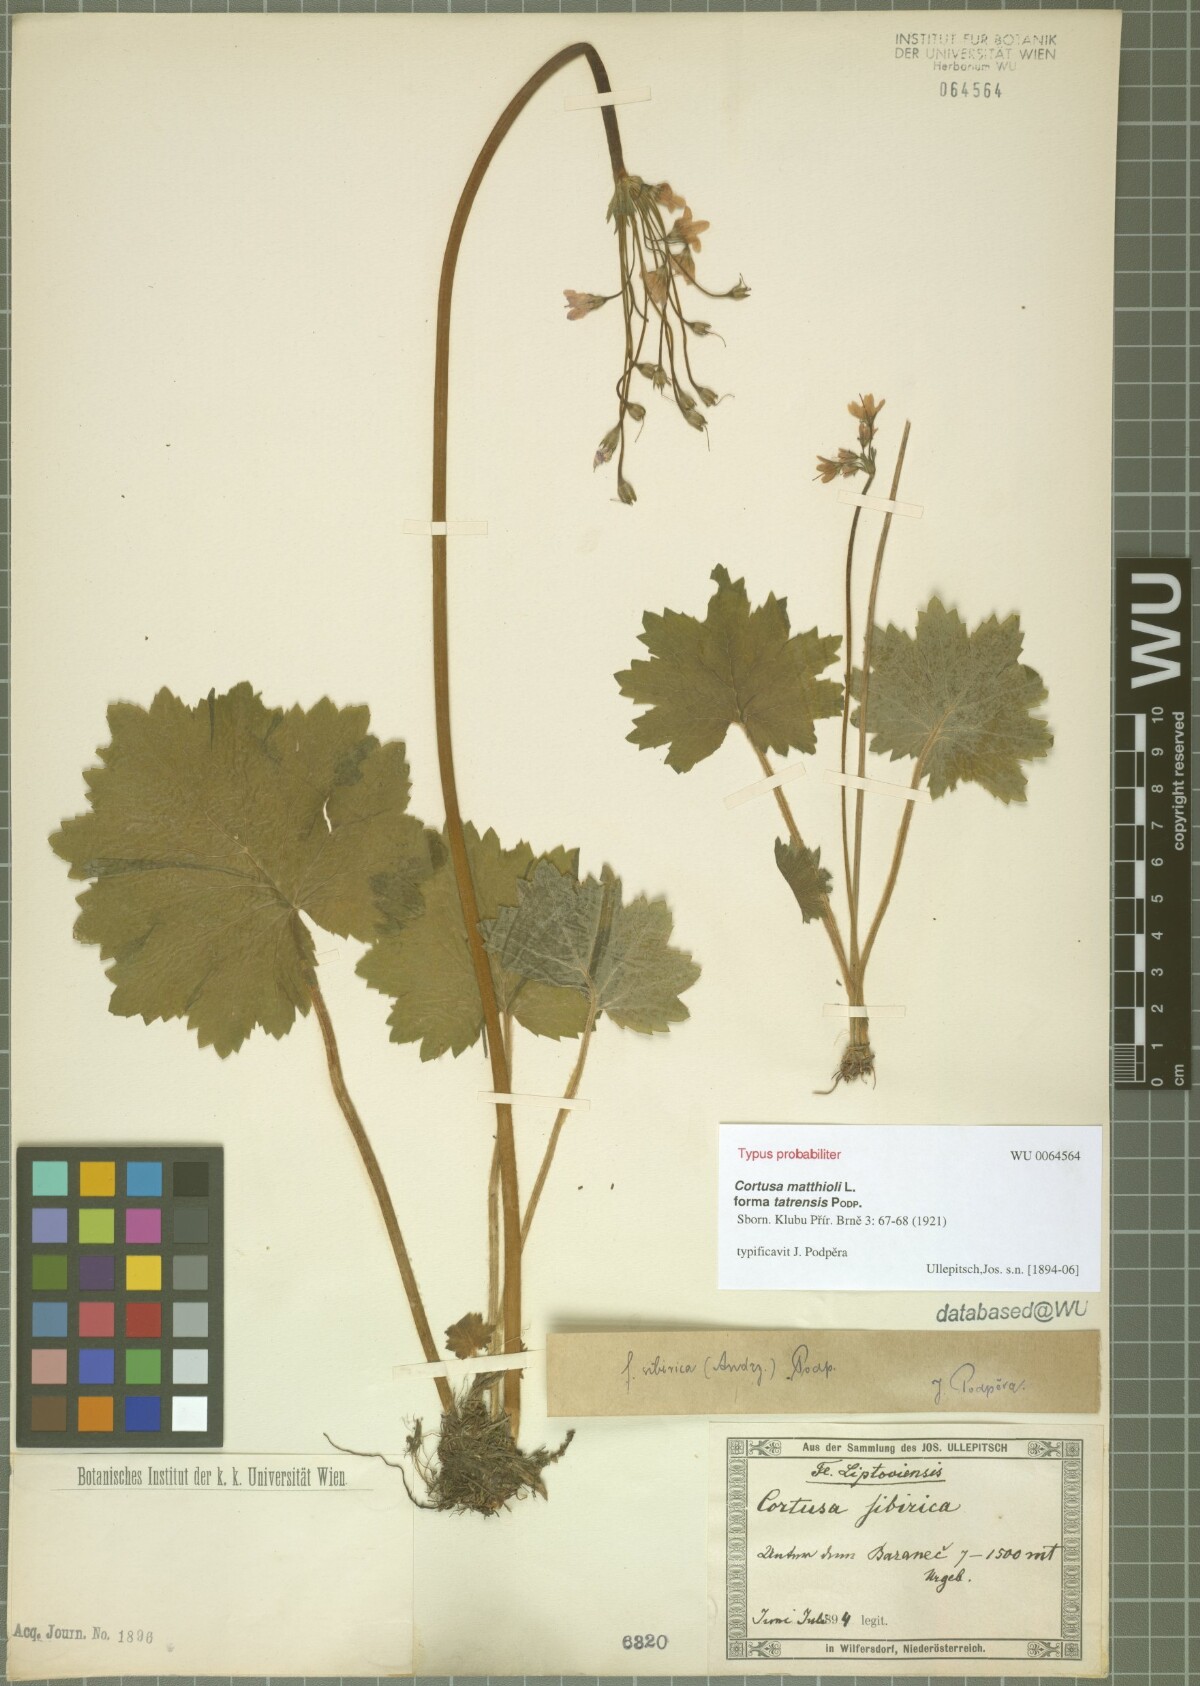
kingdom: Plantae
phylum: Tracheophyta
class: Magnoliopsida
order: Ericales
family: Primulaceae
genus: Primula
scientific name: Primula matthioli
